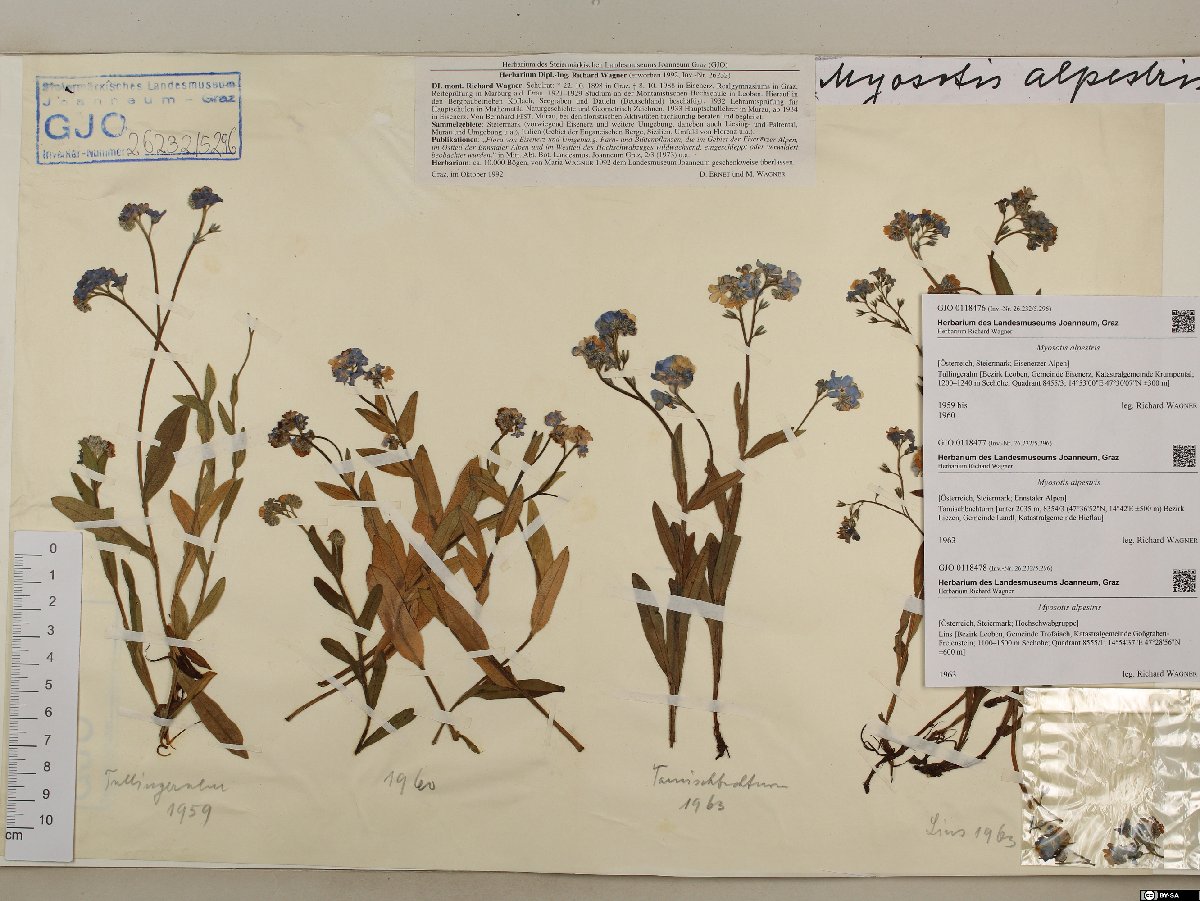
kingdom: Plantae
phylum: Tracheophyta
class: Magnoliopsida
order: Boraginales
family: Boraginaceae
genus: Myosotis
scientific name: Myosotis alpestris
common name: Alpine forget-me-not
